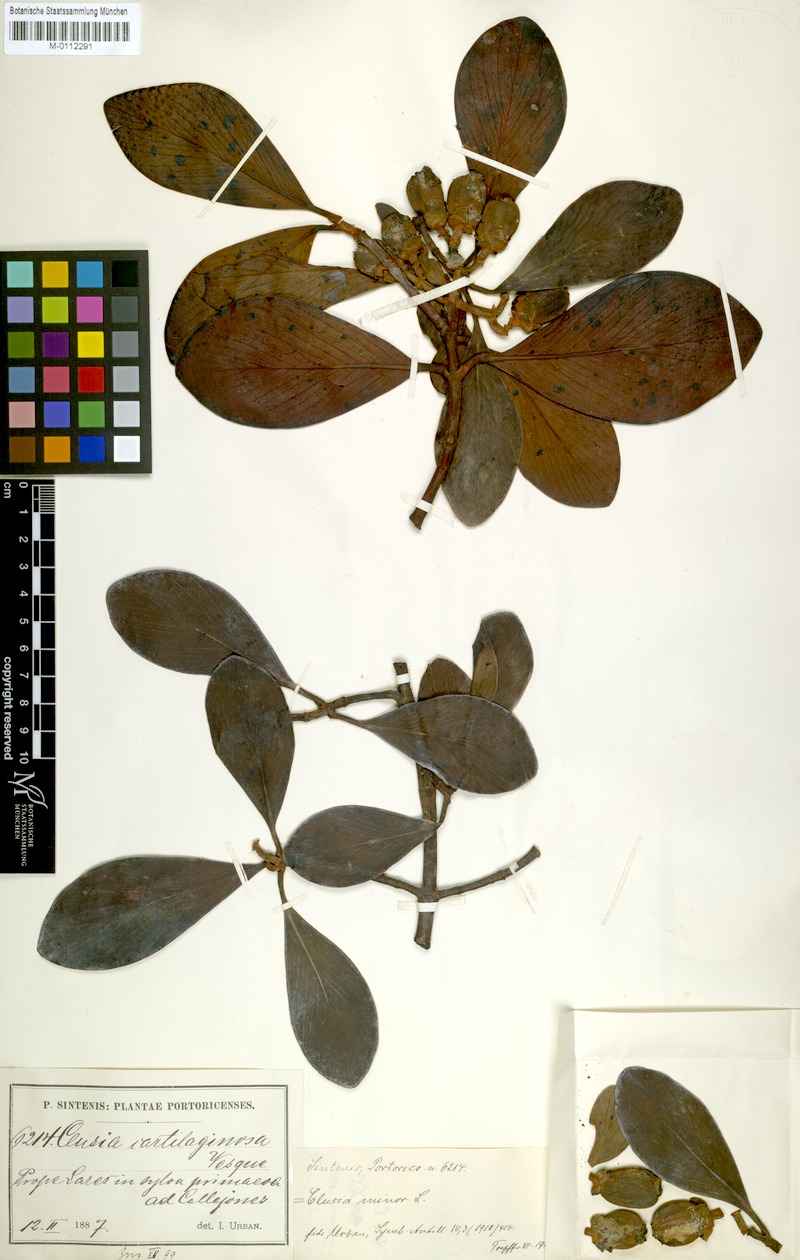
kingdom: Plantae
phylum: Tracheophyta
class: Magnoliopsida
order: Malpighiales
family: Clusiaceae
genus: Clusia
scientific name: Clusia minor
